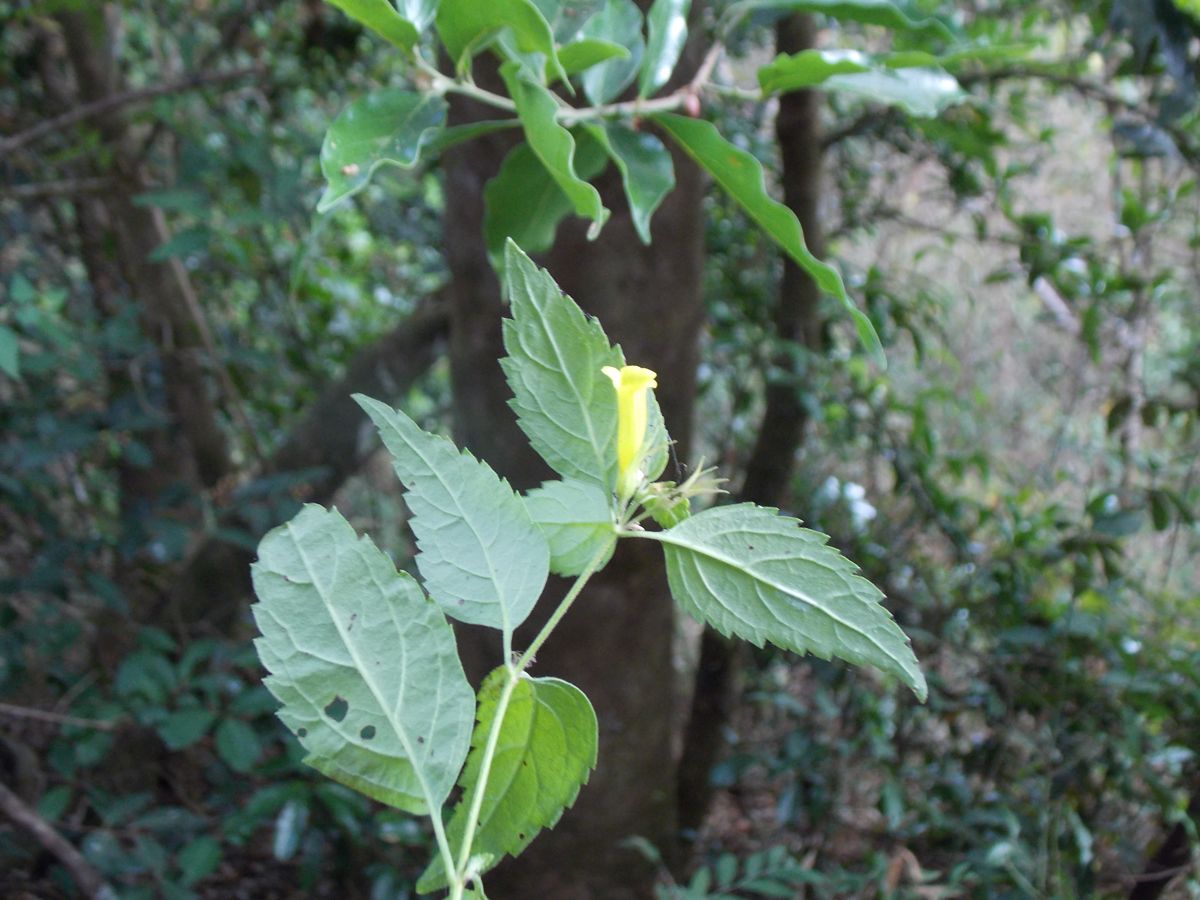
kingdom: Plantae
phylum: Tracheophyta
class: Magnoliopsida
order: Lamiales
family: Plantaginaceae
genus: Stemodia
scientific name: Stemodia peduncularis
